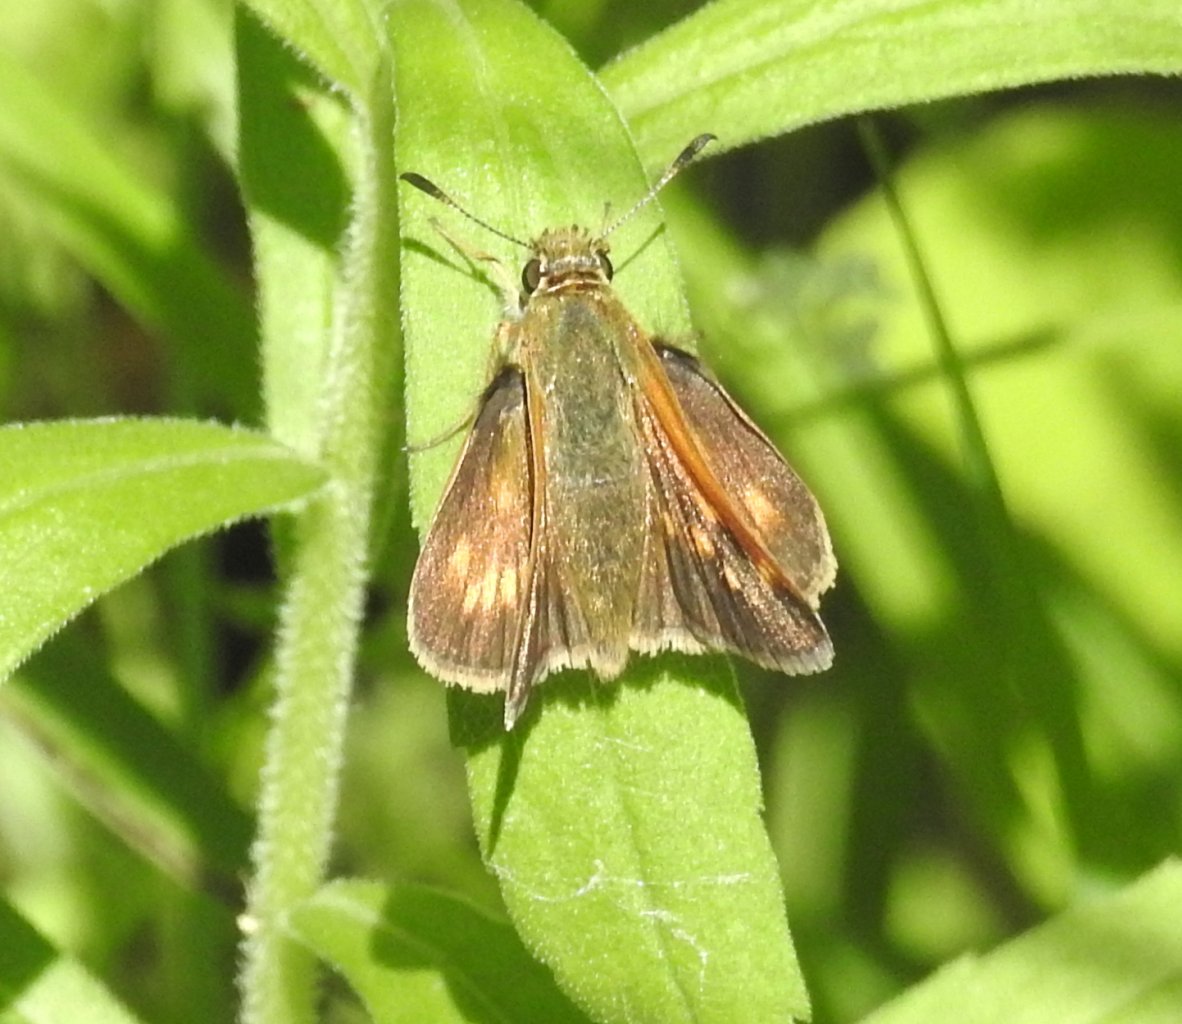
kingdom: Animalia
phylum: Arthropoda
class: Insecta
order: Lepidoptera
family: Hesperiidae
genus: Polites
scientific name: Polites
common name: Long Dash Skipper
